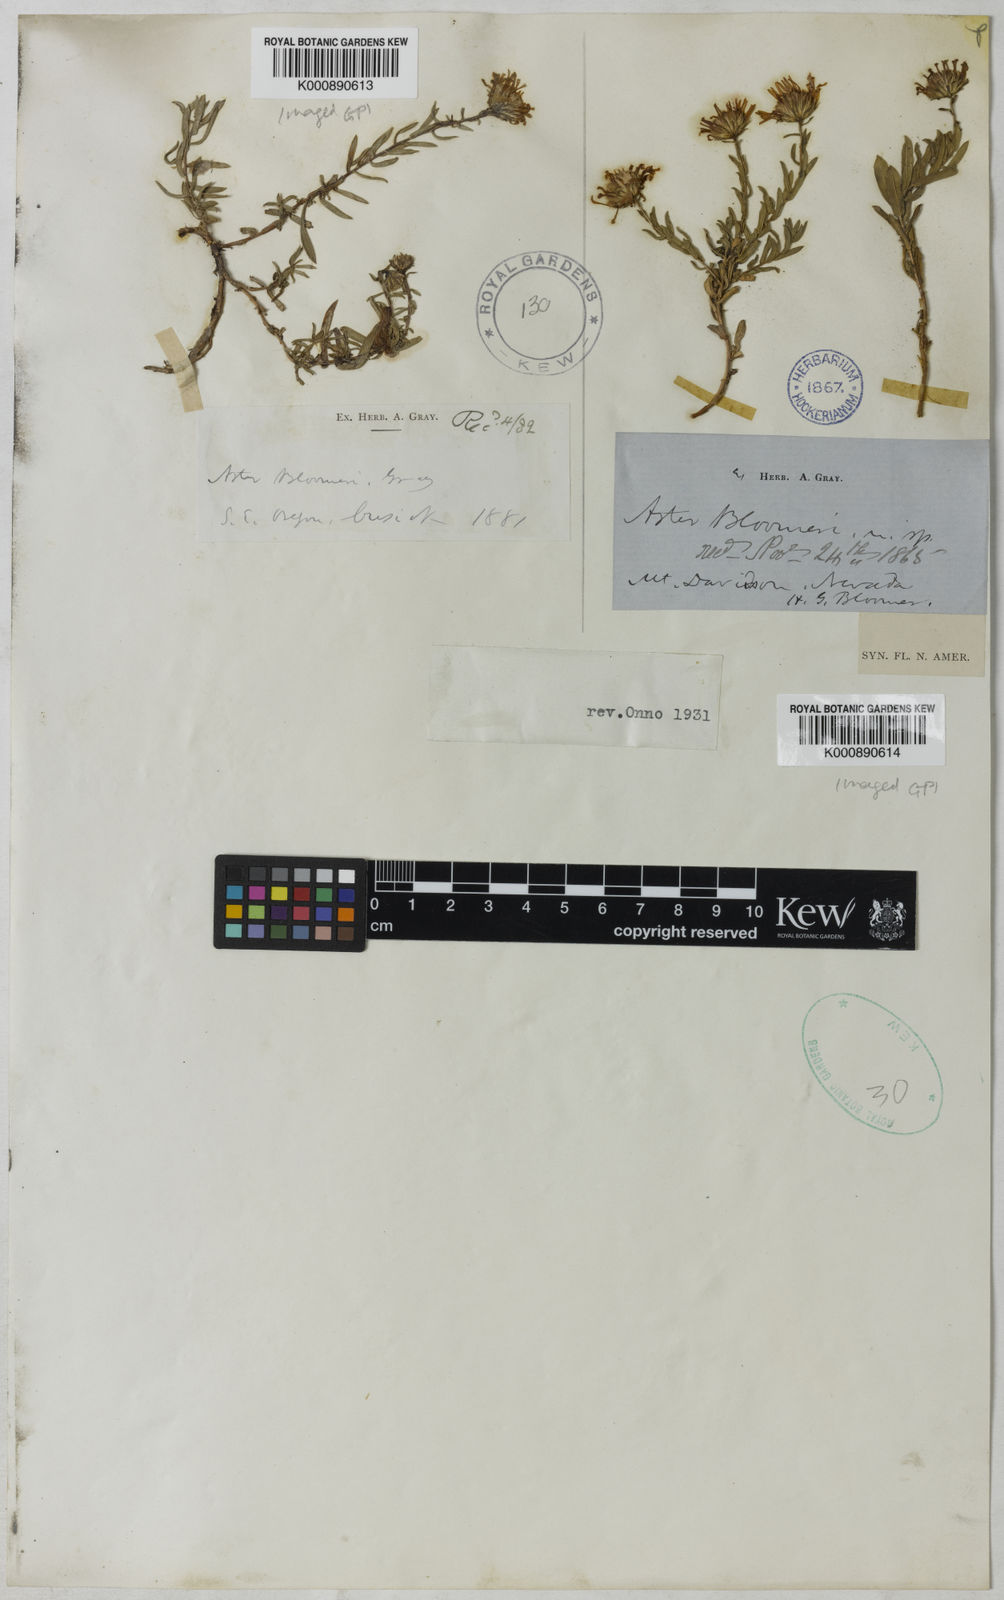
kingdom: Plantae
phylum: Tracheophyta
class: Magnoliopsida
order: Asterales
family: Asteraceae
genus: Symphyotrichum
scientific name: Symphyotrichum campestre
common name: Meadow aster
